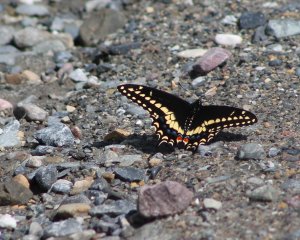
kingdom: Animalia
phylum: Arthropoda
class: Insecta
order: Lepidoptera
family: Papilionidae
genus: Papilio
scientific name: Papilio polyxenes
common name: Black Swallowtail
